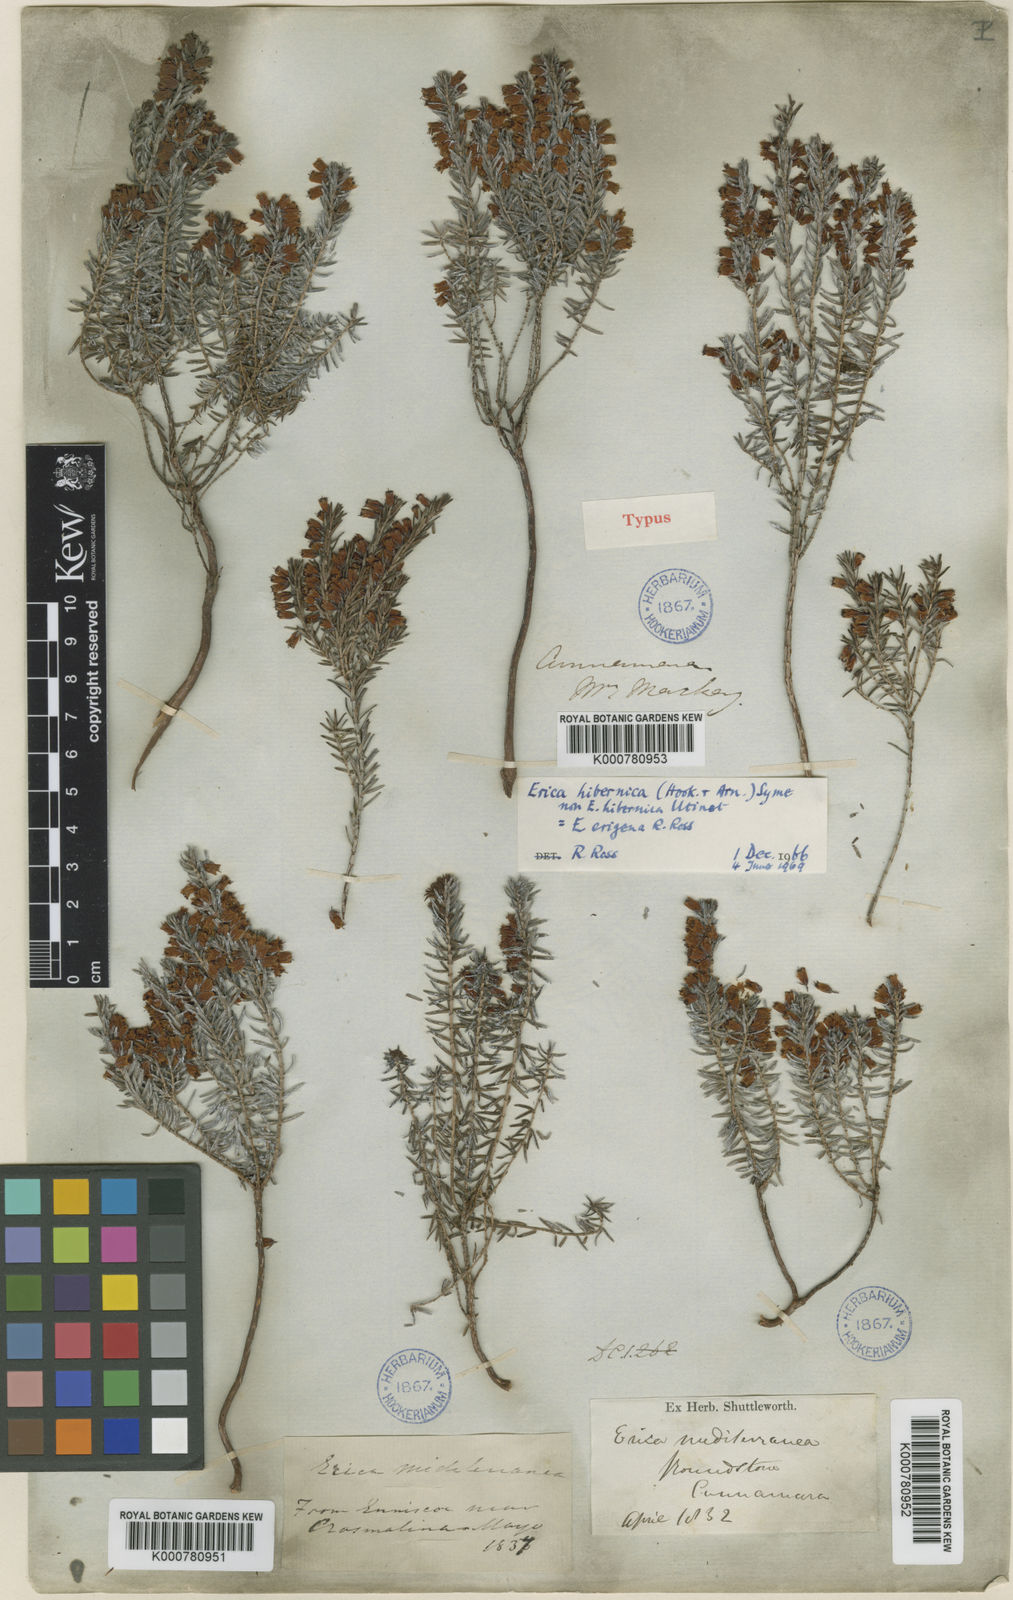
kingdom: Plantae
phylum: Tracheophyta
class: Magnoliopsida
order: Ericales
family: Ericaceae
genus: Erica
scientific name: Erica erigena
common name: Irish heath
